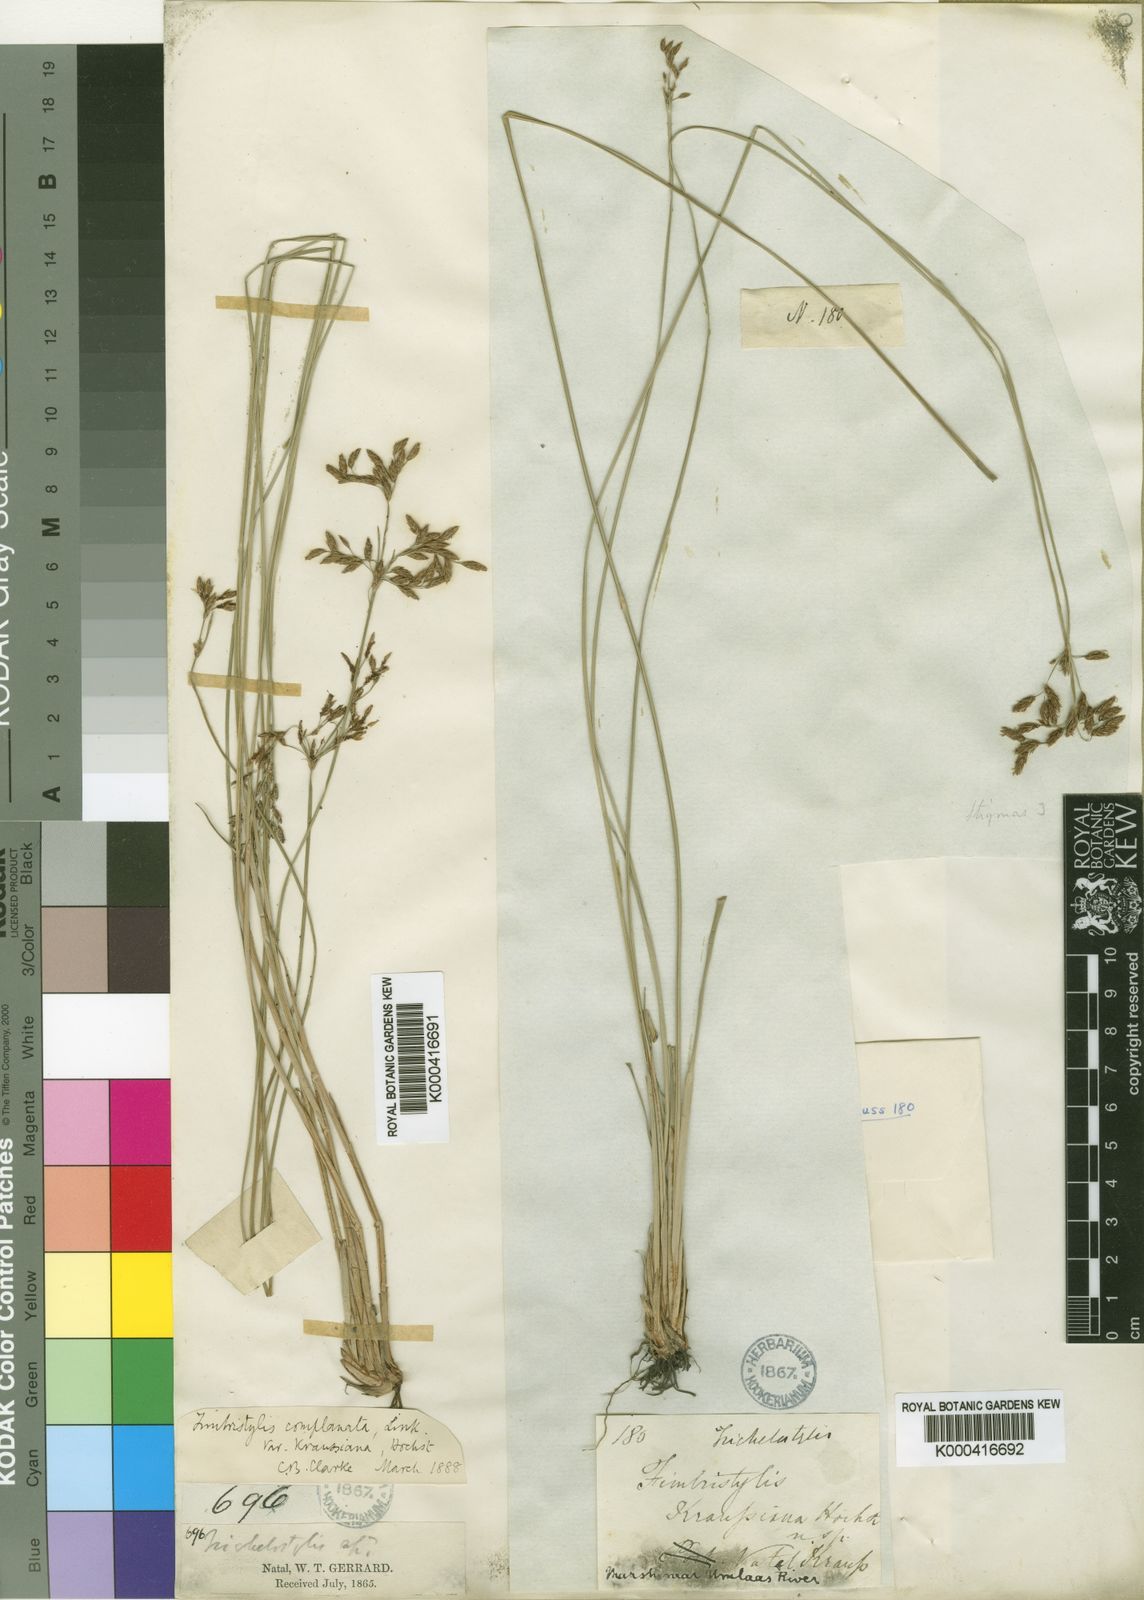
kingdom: Plantae
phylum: Tracheophyta
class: Liliopsida
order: Poales
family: Cyperaceae
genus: Fimbristylis
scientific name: Fimbristylis consanguinea
